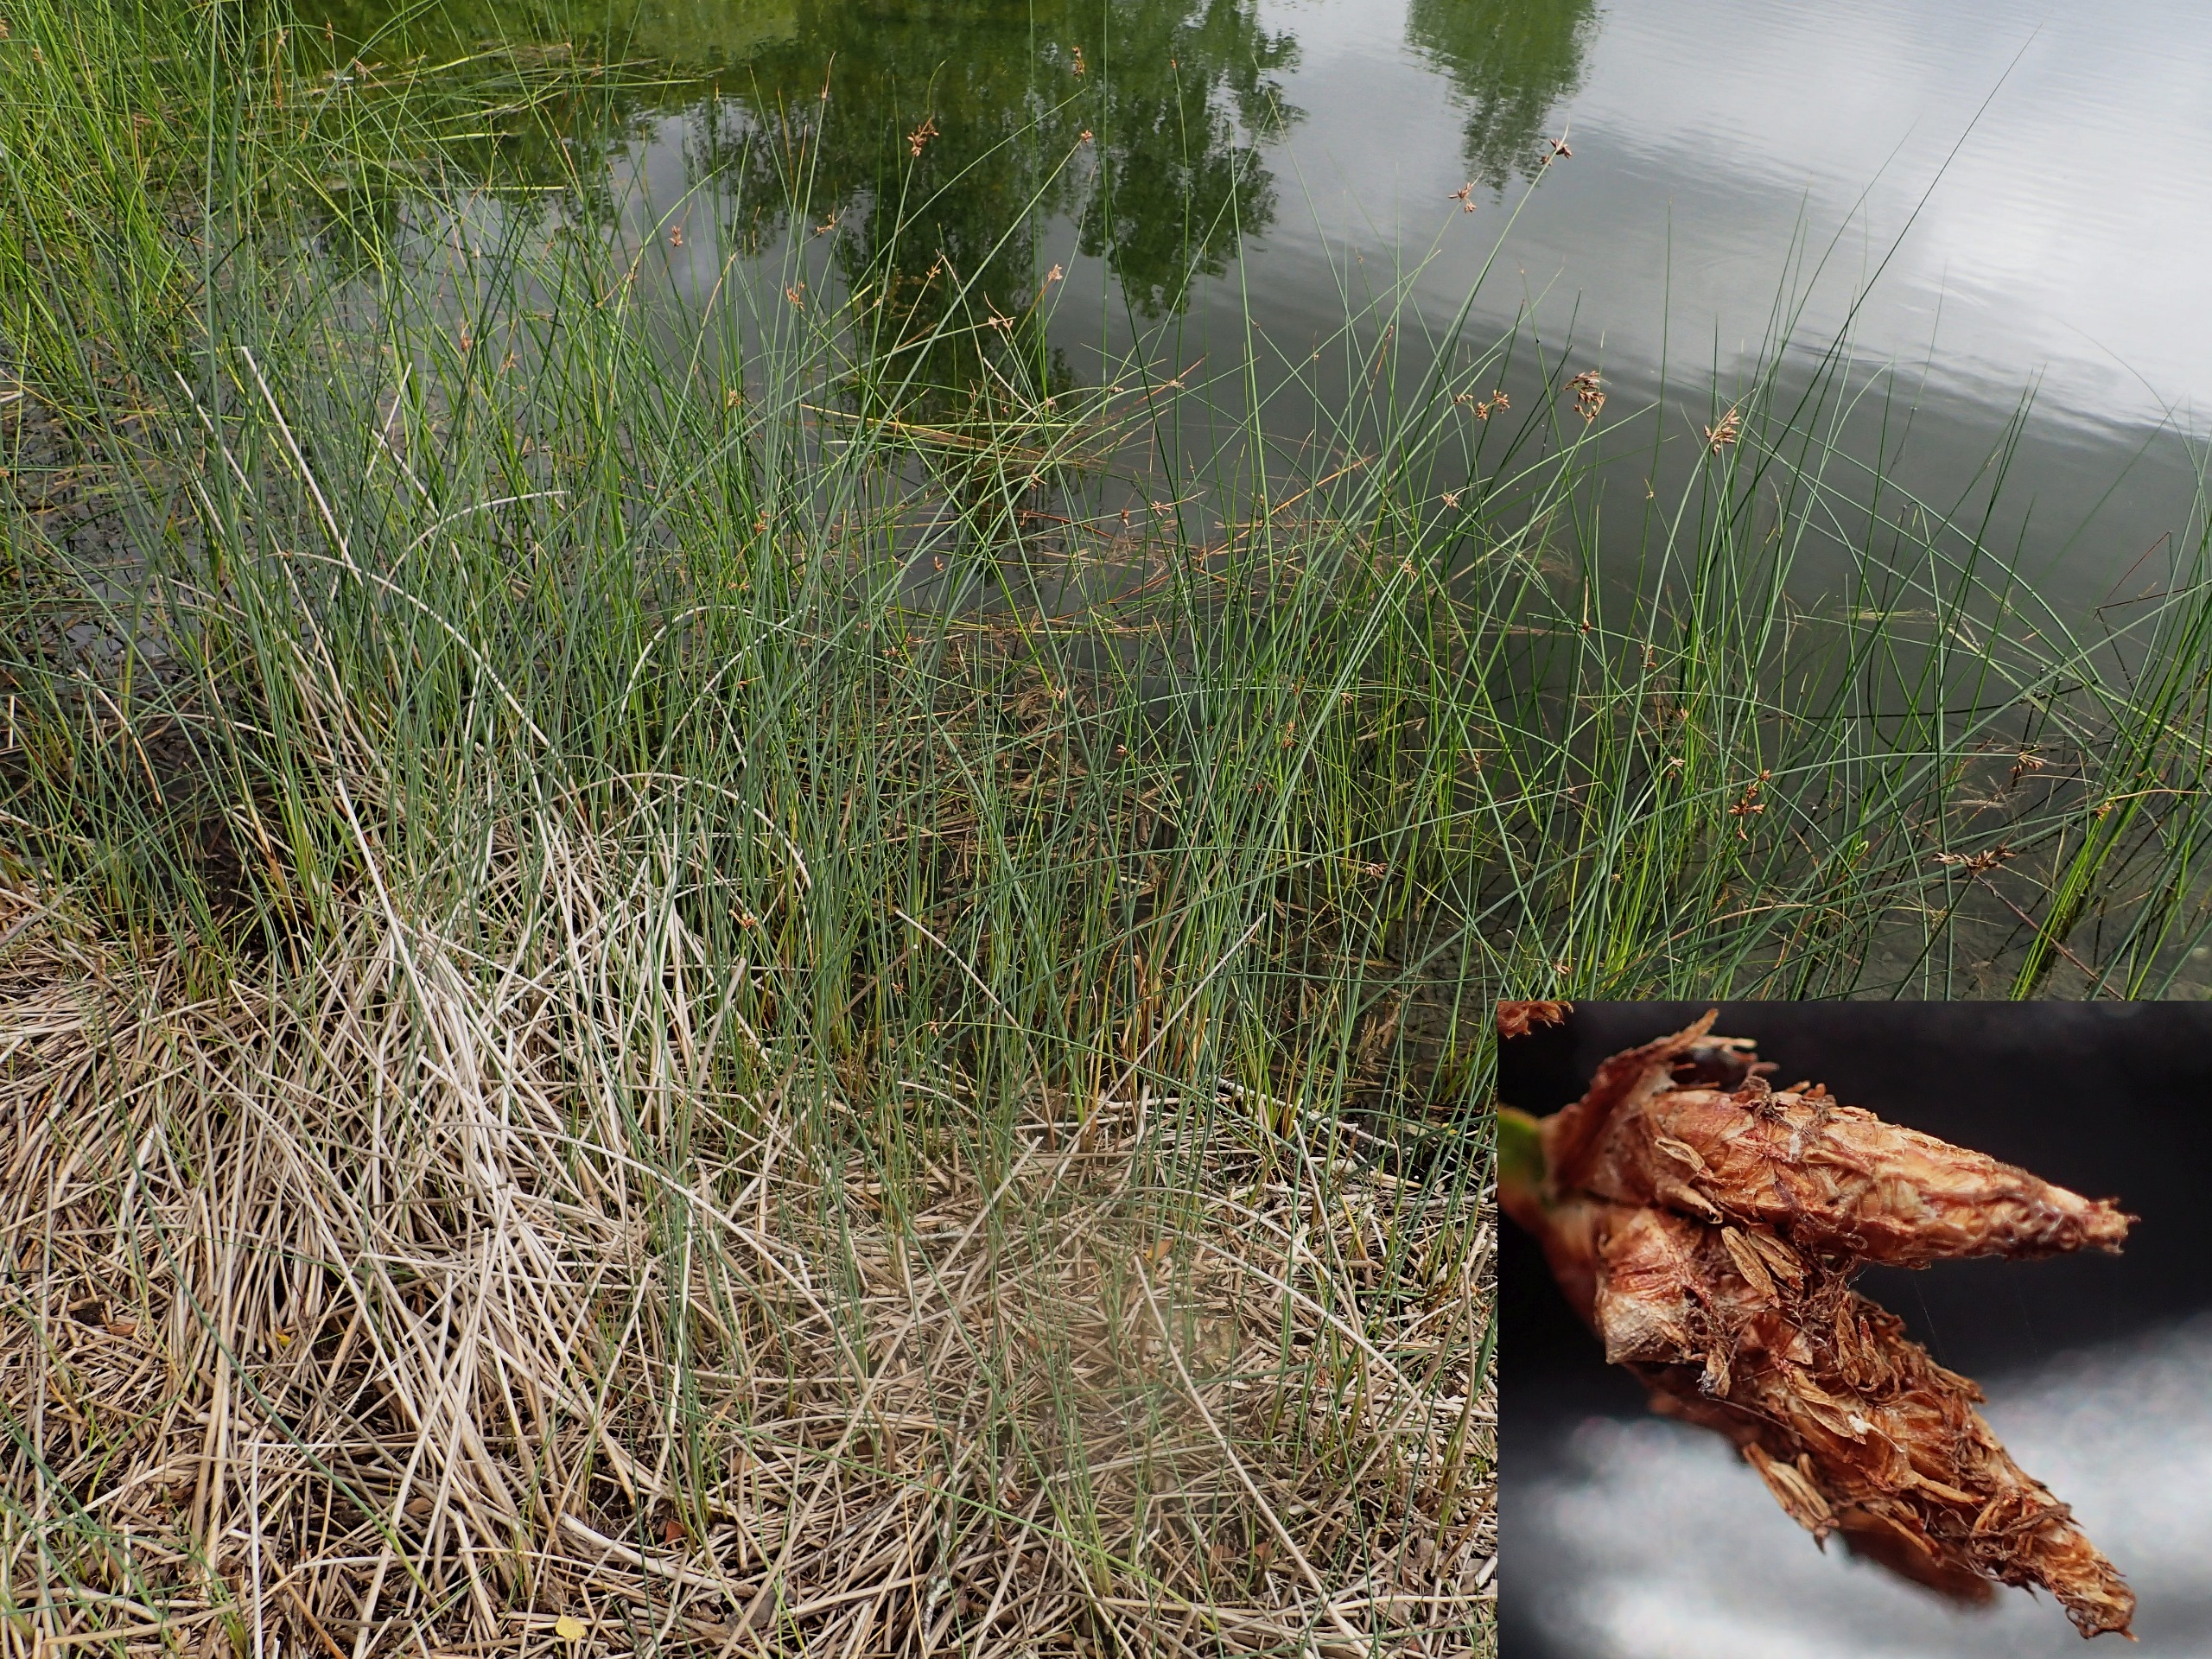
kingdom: Plantae
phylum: Tracheophyta
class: Liliopsida
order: Poales
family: Cyperaceae
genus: Schoenoplectus
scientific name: Schoenoplectus lacustris
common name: Sø-kogleaks
